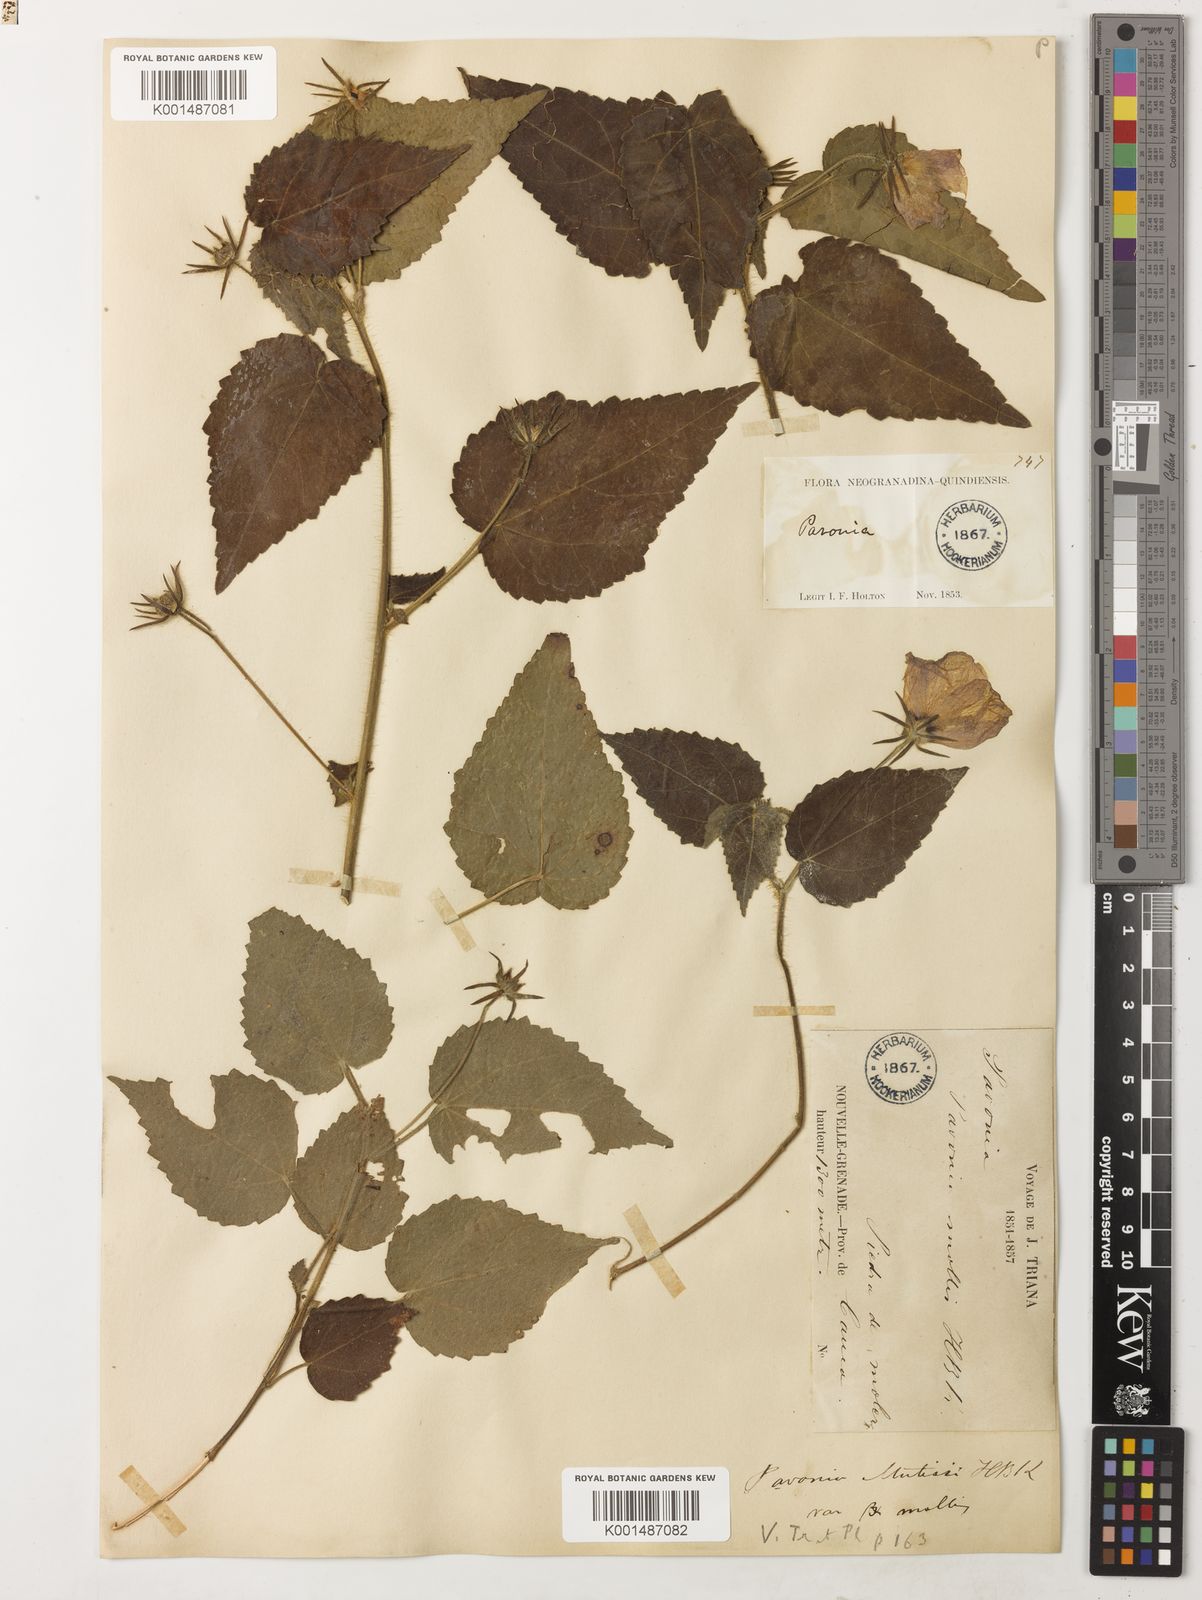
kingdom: Plantae
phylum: Tracheophyta
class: Magnoliopsida
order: Malvales
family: Malvaceae
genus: Pavonia
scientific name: Pavonia mollis
